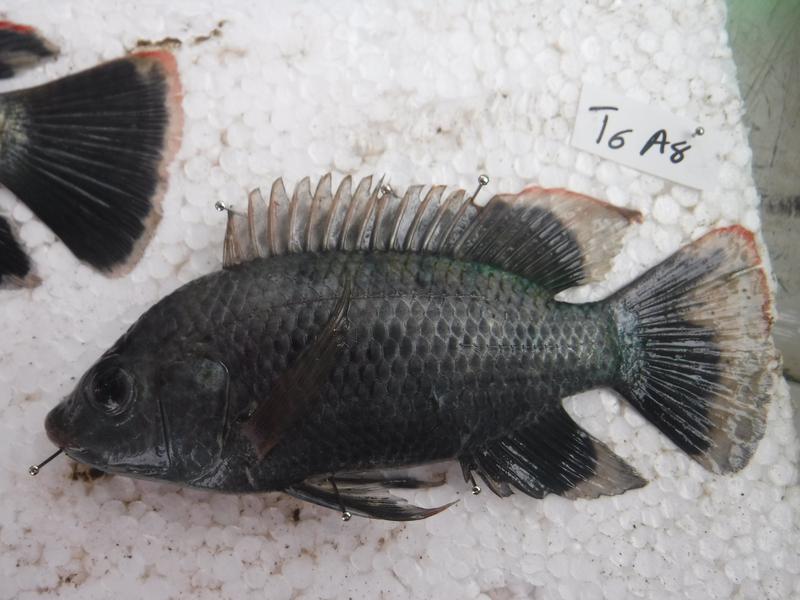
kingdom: Animalia
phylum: Chordata
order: Perciformes
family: Cichlidae
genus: Oreochromis
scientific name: Oreochromis urolepis
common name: Wami tilapia
